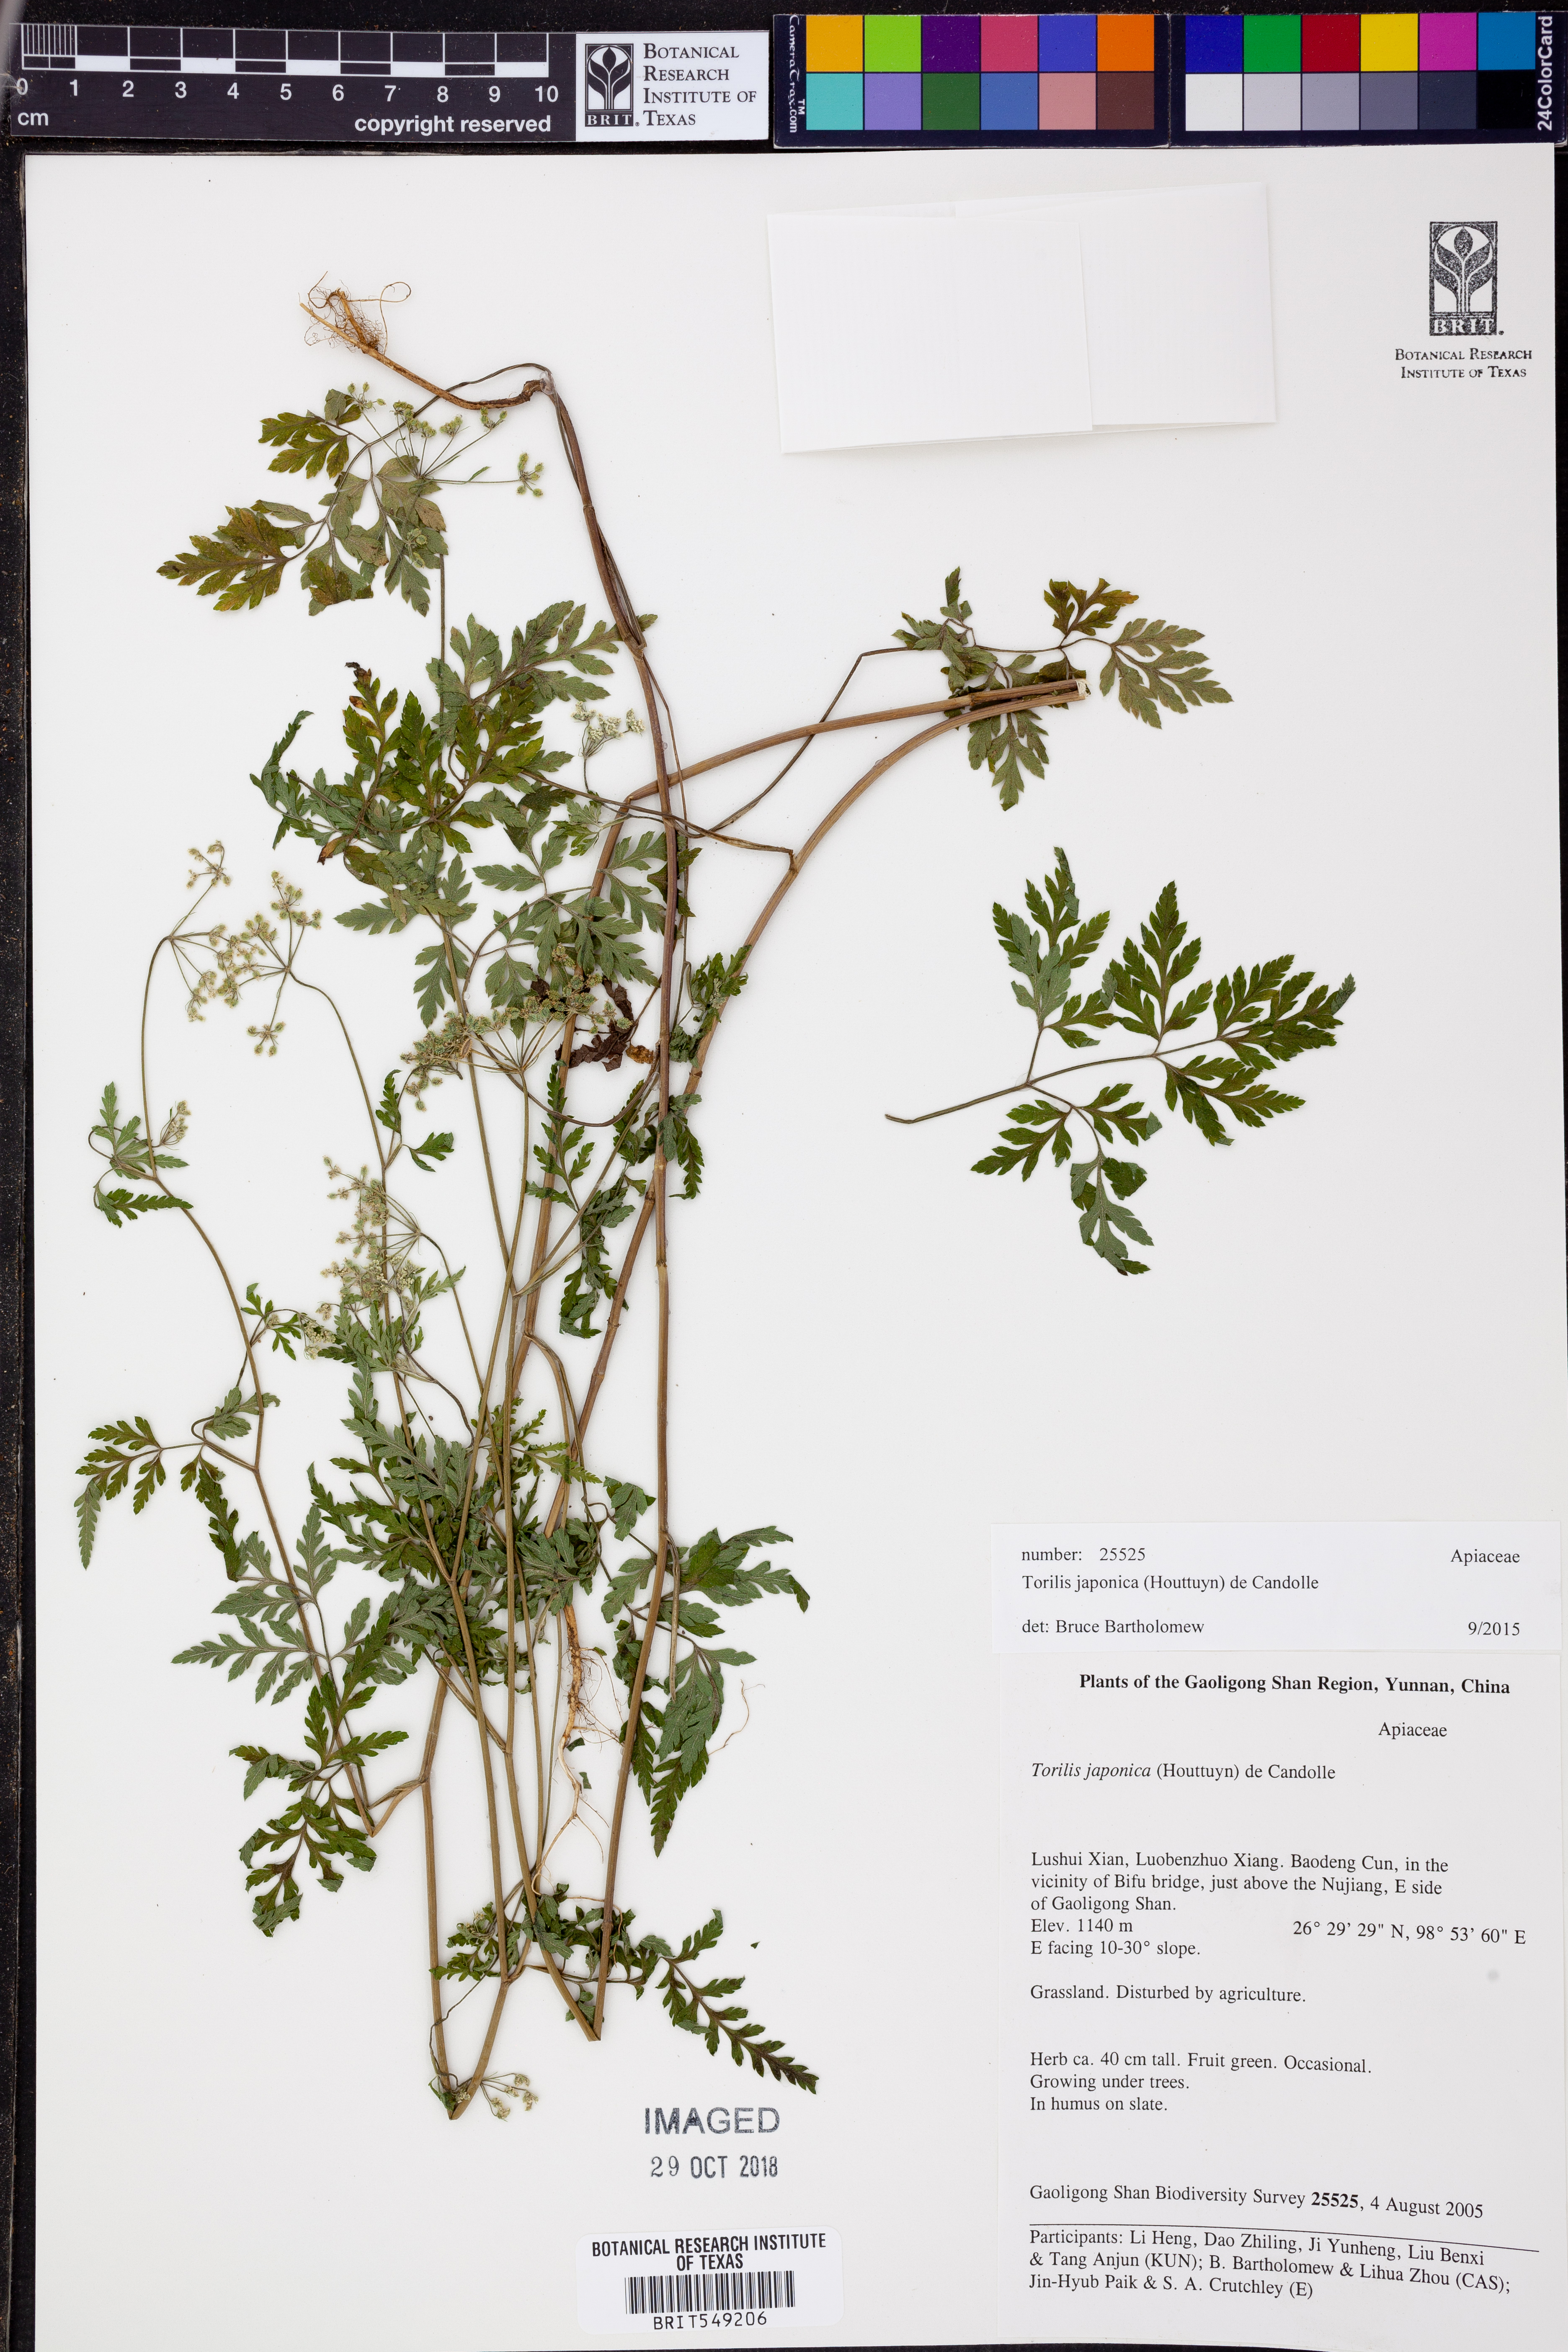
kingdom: Plantae
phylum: Tracheophyta
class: Magnoliopsida
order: Apiales
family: Apiaceae
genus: Torilis
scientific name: Torilis japonica
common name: Upright hedge-parsley
